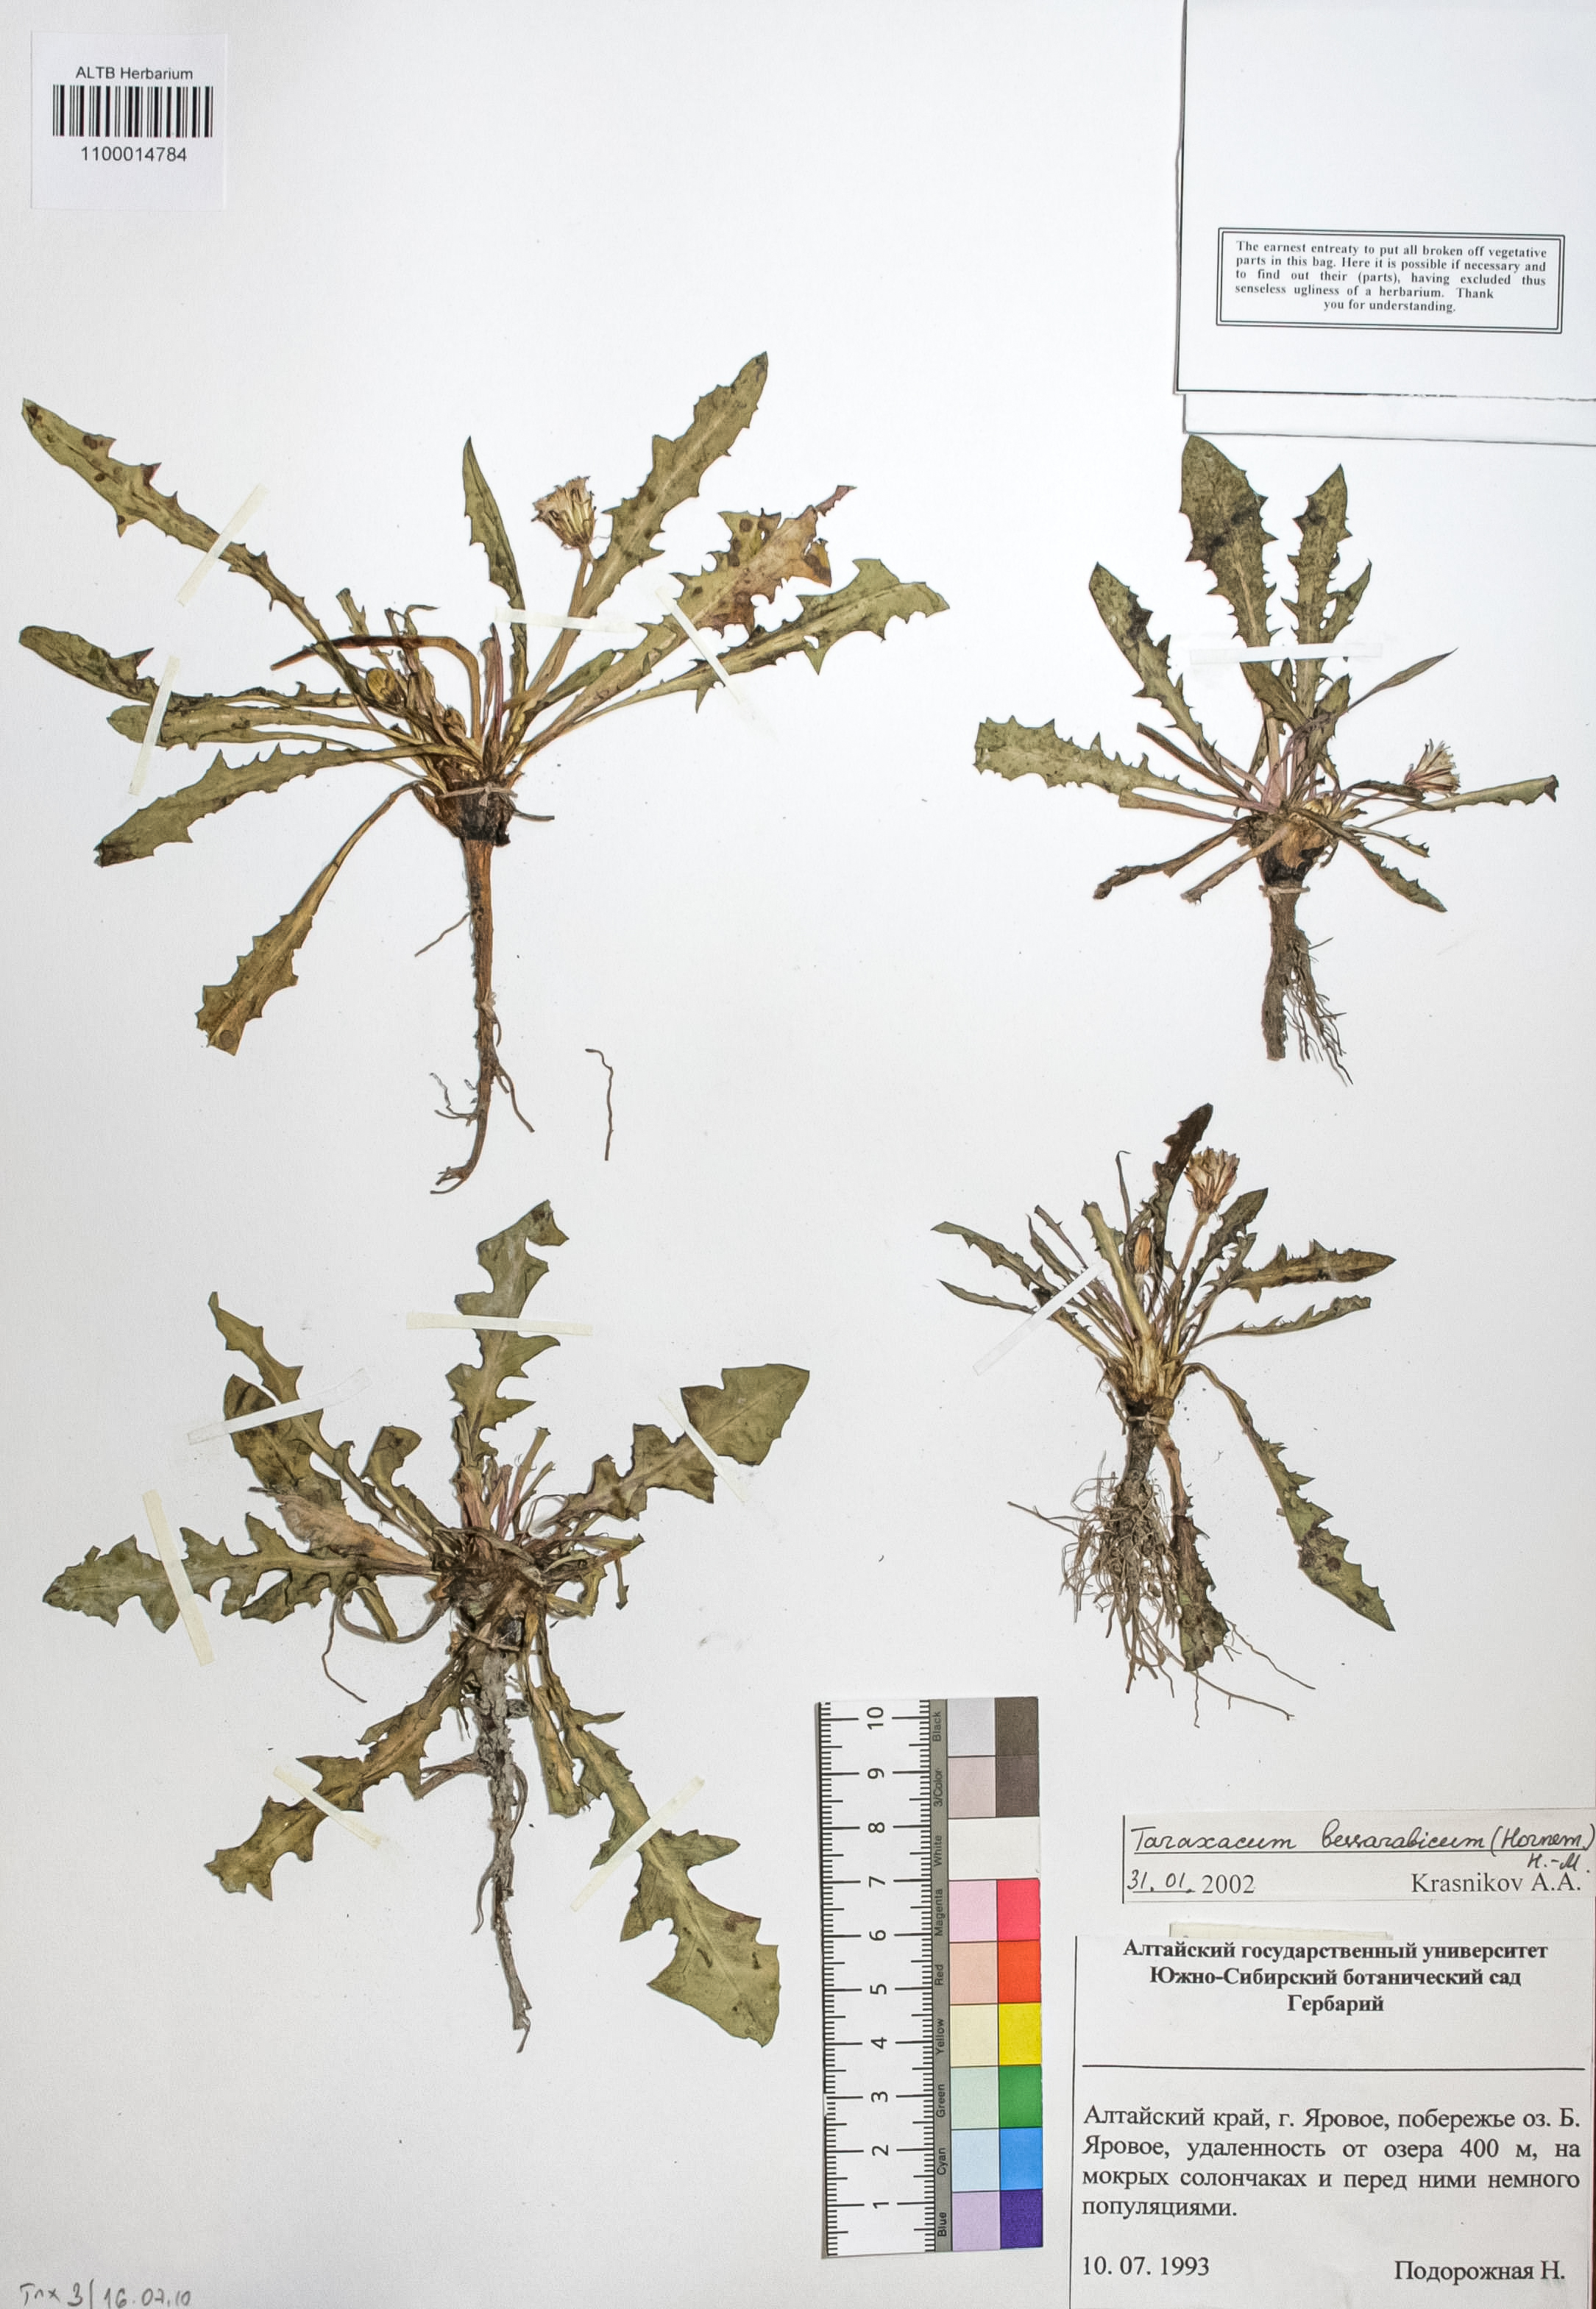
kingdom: Plantae
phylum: Tracheophyta
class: Magnoliopsida
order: Asterales
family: Asteraceae
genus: Taraxacum
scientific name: Taraxacum bessarabicum
